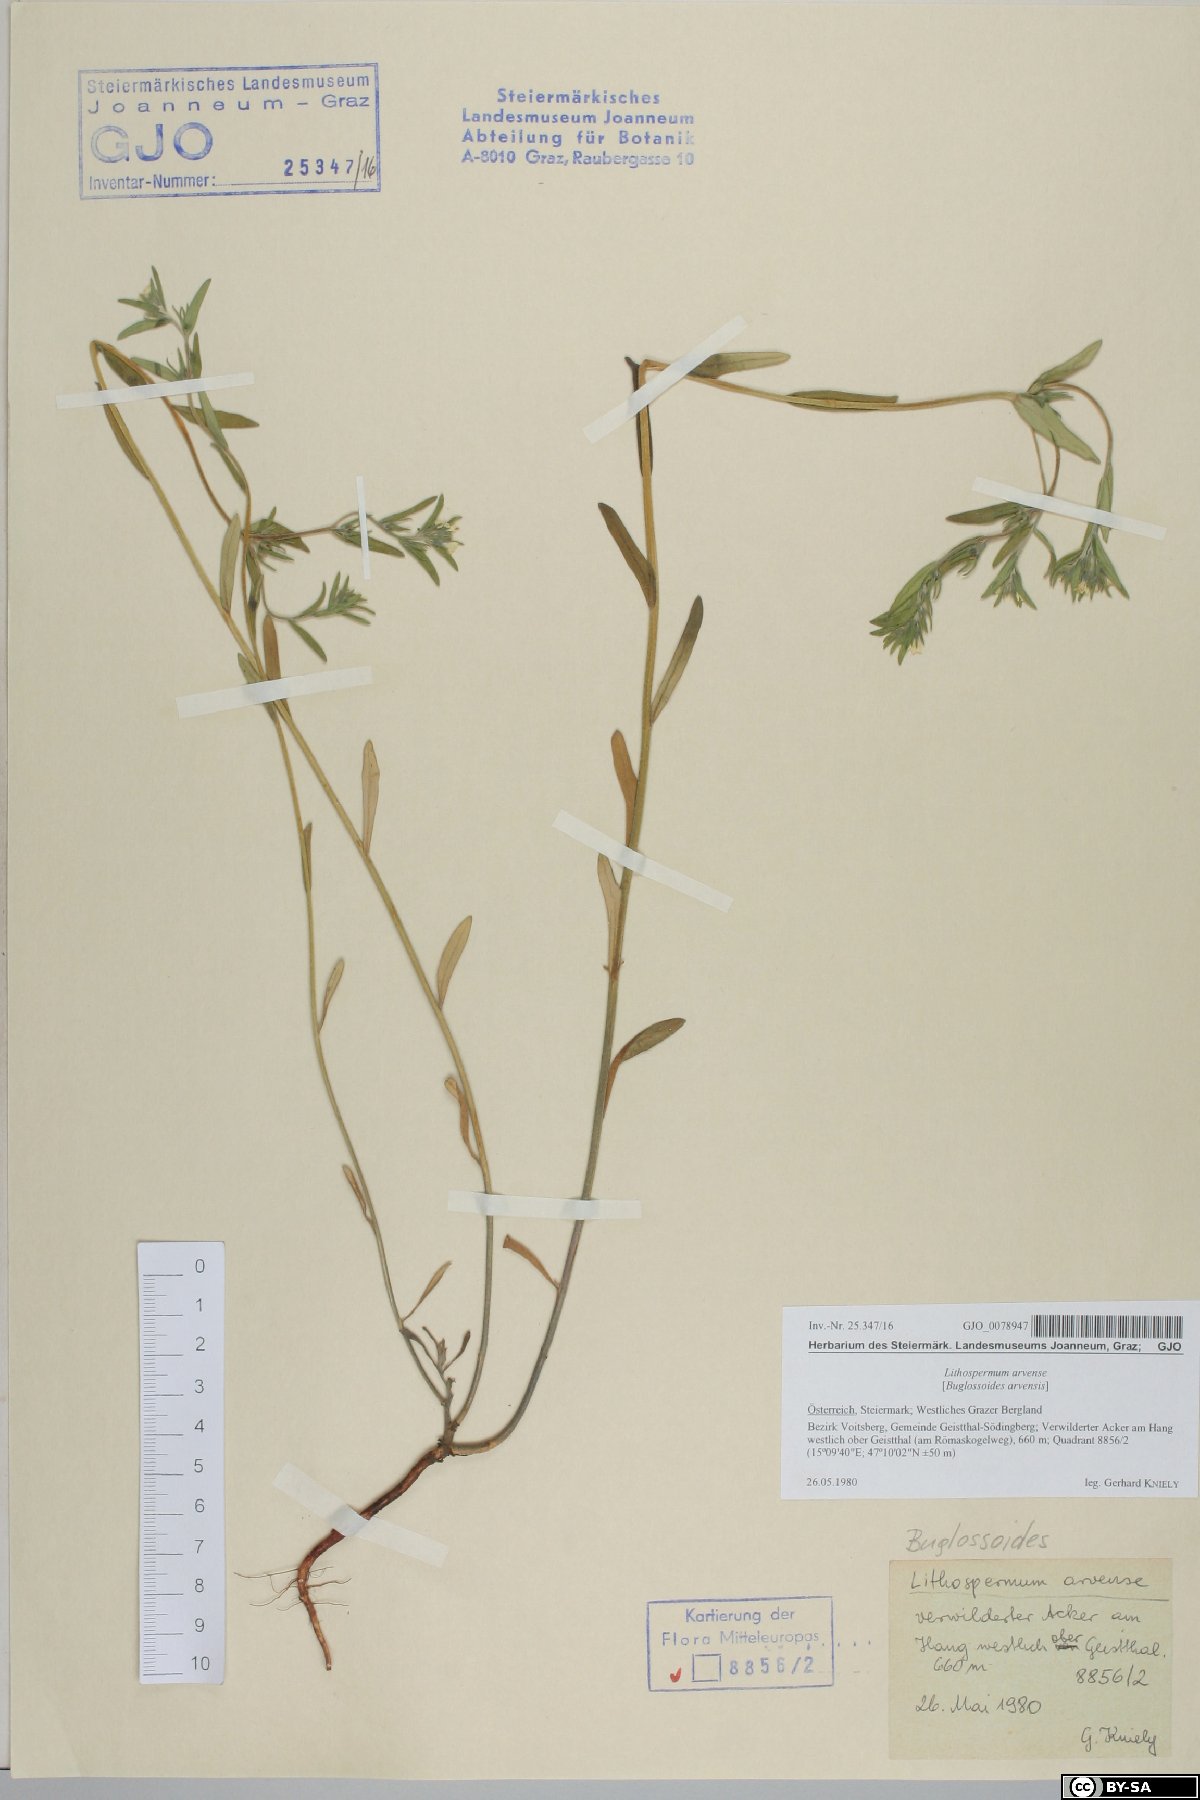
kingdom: Plantae
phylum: Tracheophyta
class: Magnoliopsida
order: Boraginales
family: Boraginaceae
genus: Buglossoides
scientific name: Buglossoides arvensis
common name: Corn gromwell
